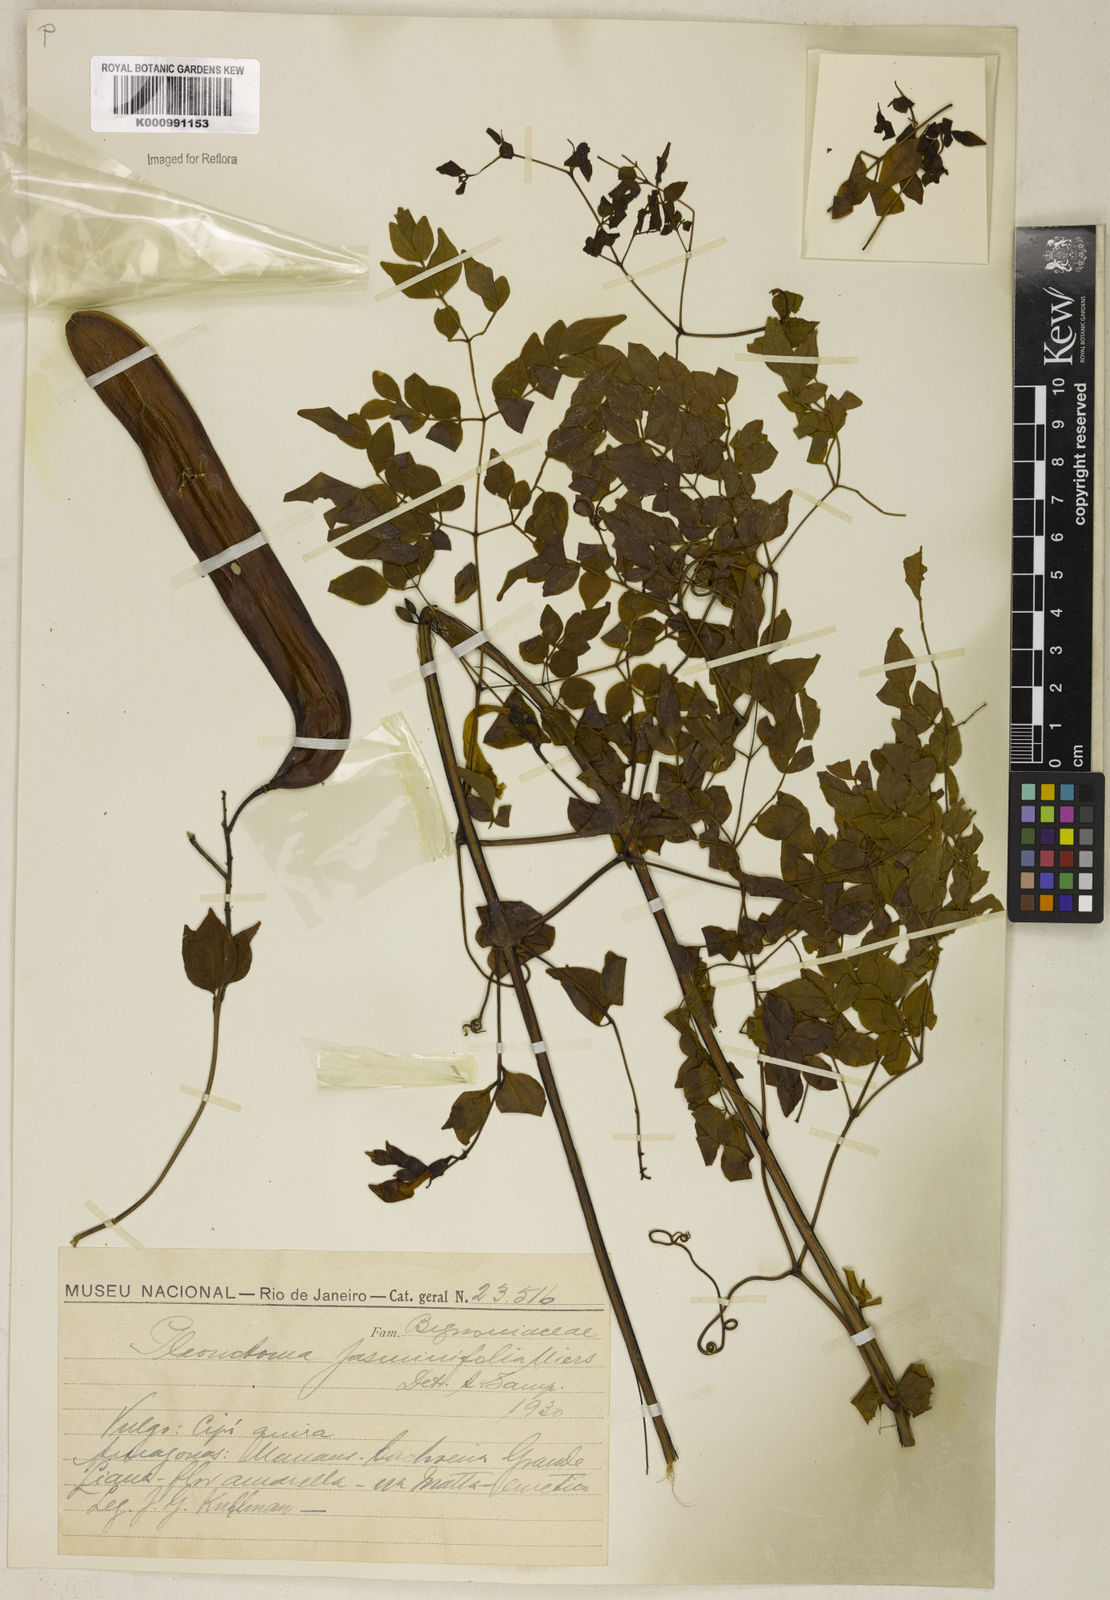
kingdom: Plantae
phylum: Tracheophyta
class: Magnoliopsida
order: Lamiales
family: Bignoniaceae
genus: Pleonotoma
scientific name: Pleonotoma jasminifolia
